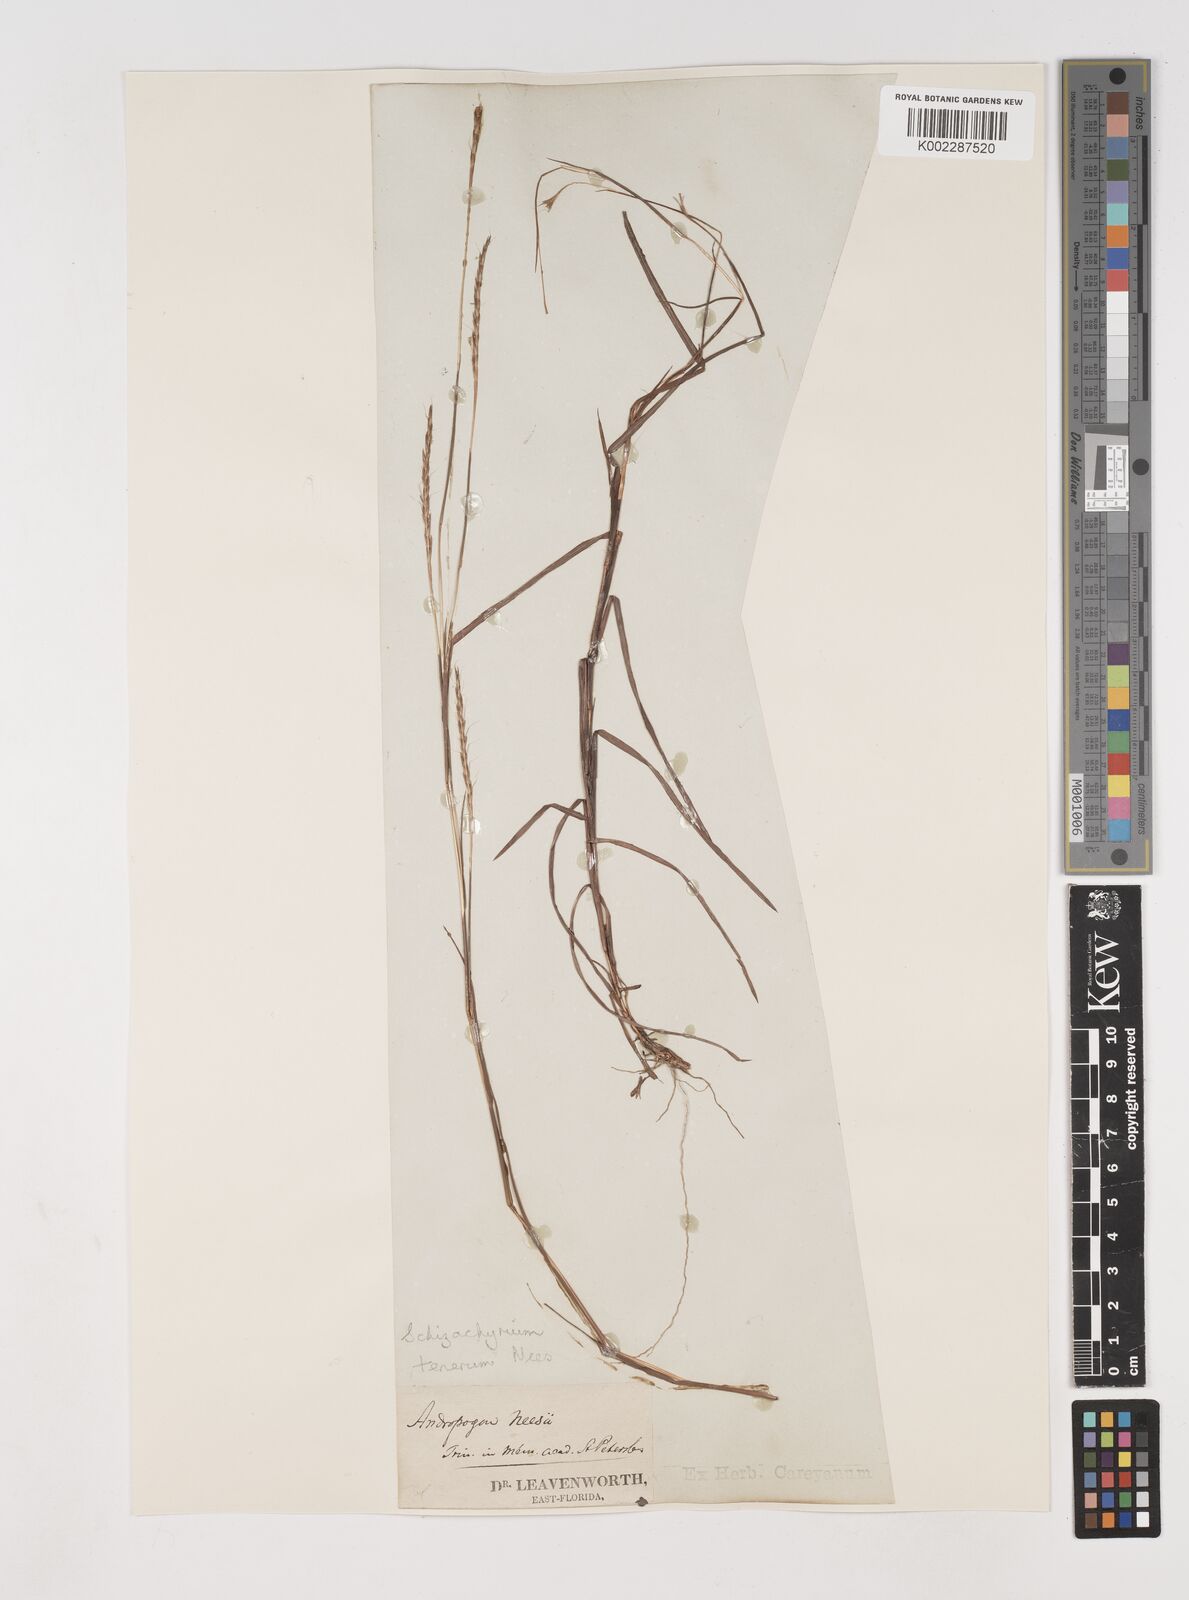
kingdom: Plantae
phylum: Tracheophyta
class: Liliopsida
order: Poales
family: Poaceae
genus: Andropogon
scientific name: Andropogon tener
